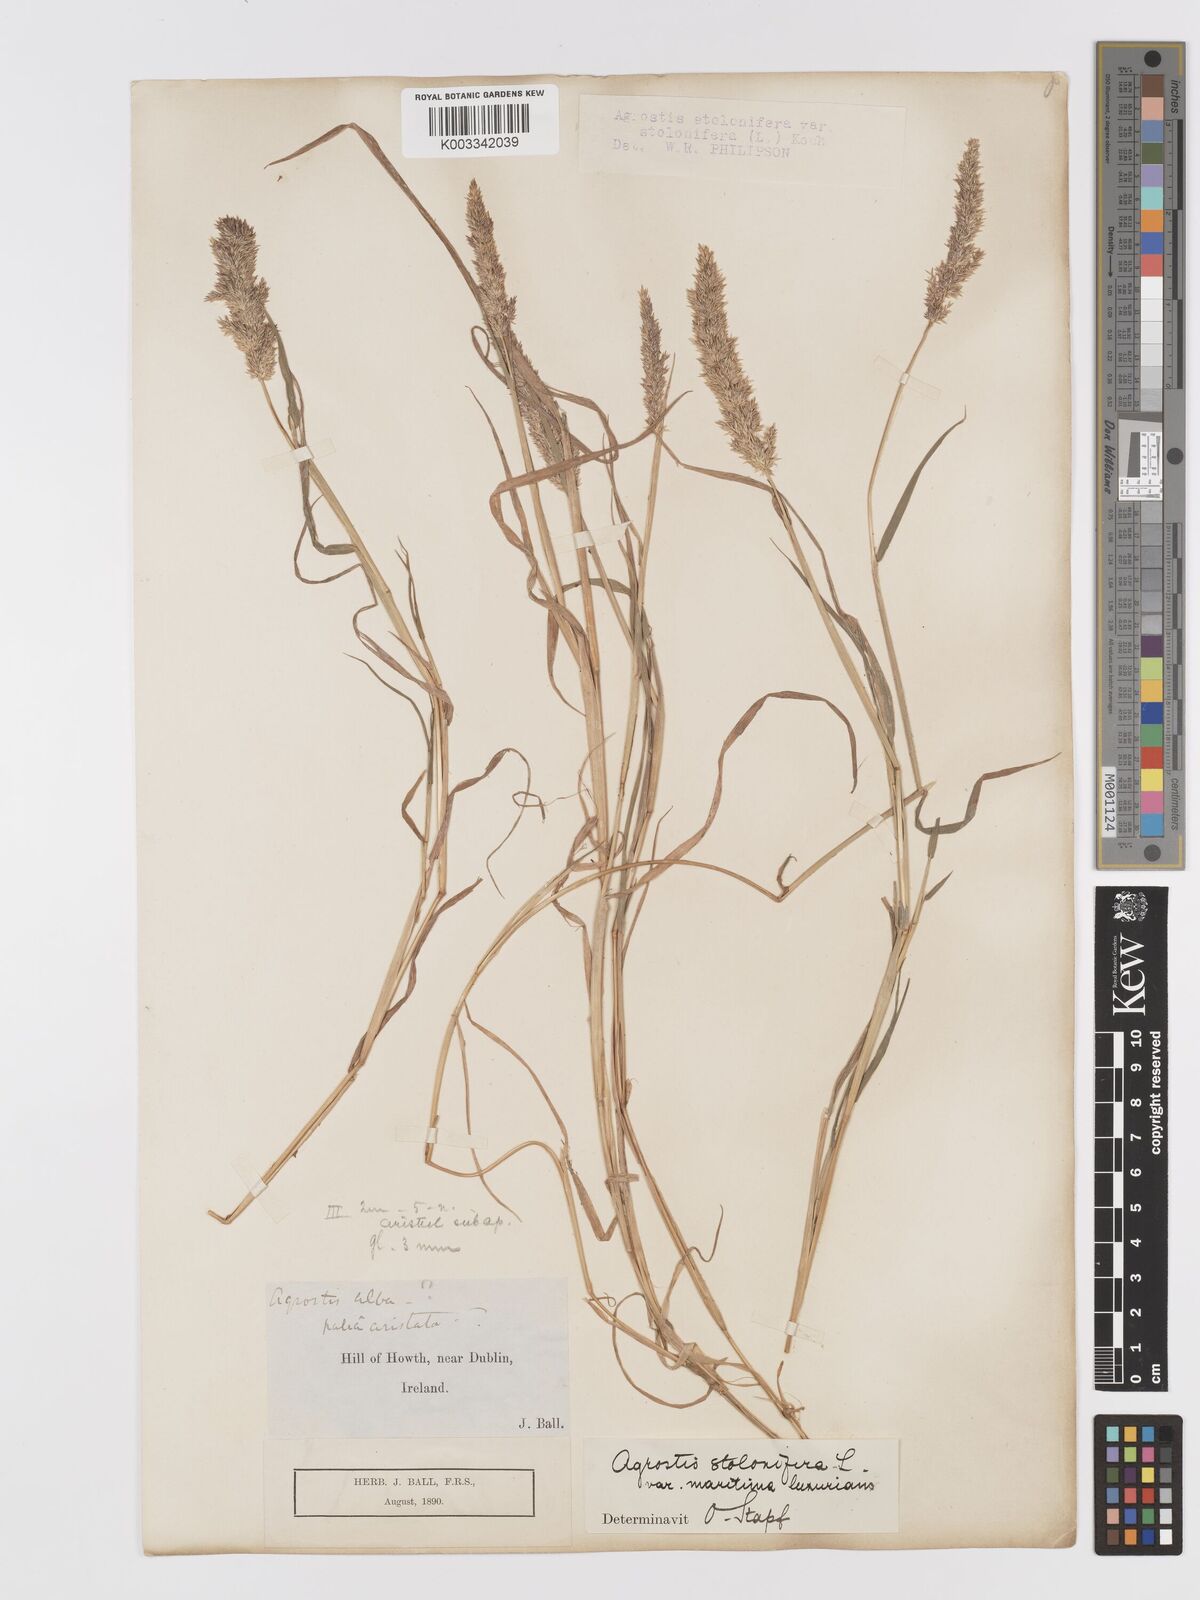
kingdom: Plantae
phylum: Tracheophyta
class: Liliopsida
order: Poales
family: Poaceae
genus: Agrostis
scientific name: Agrostis stolonifera
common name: Creeping bentgrass
